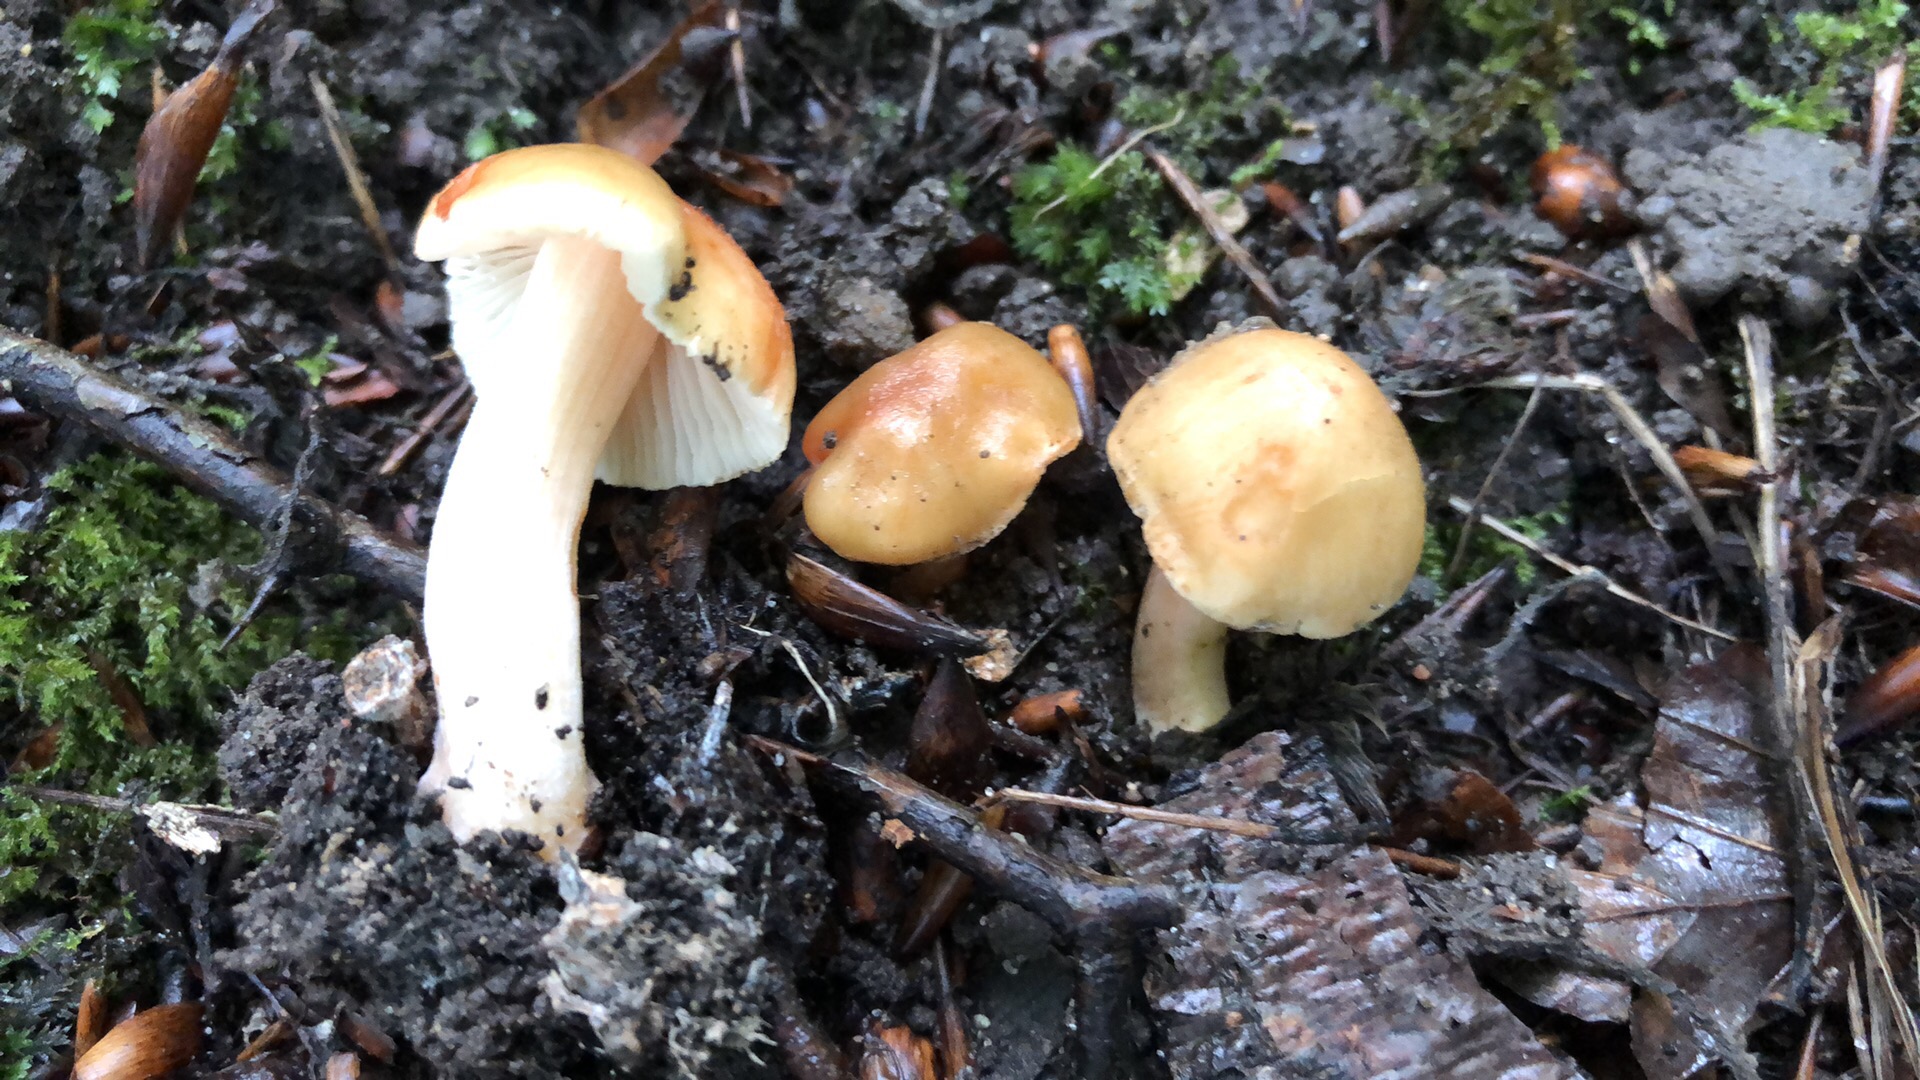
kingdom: Fungi
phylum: Basidiomycota
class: Agaricomycetes
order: Agaricales
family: Inocybaceae
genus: Inocybe
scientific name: Inocybe godeyi
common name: orangerødmende trævlhat
